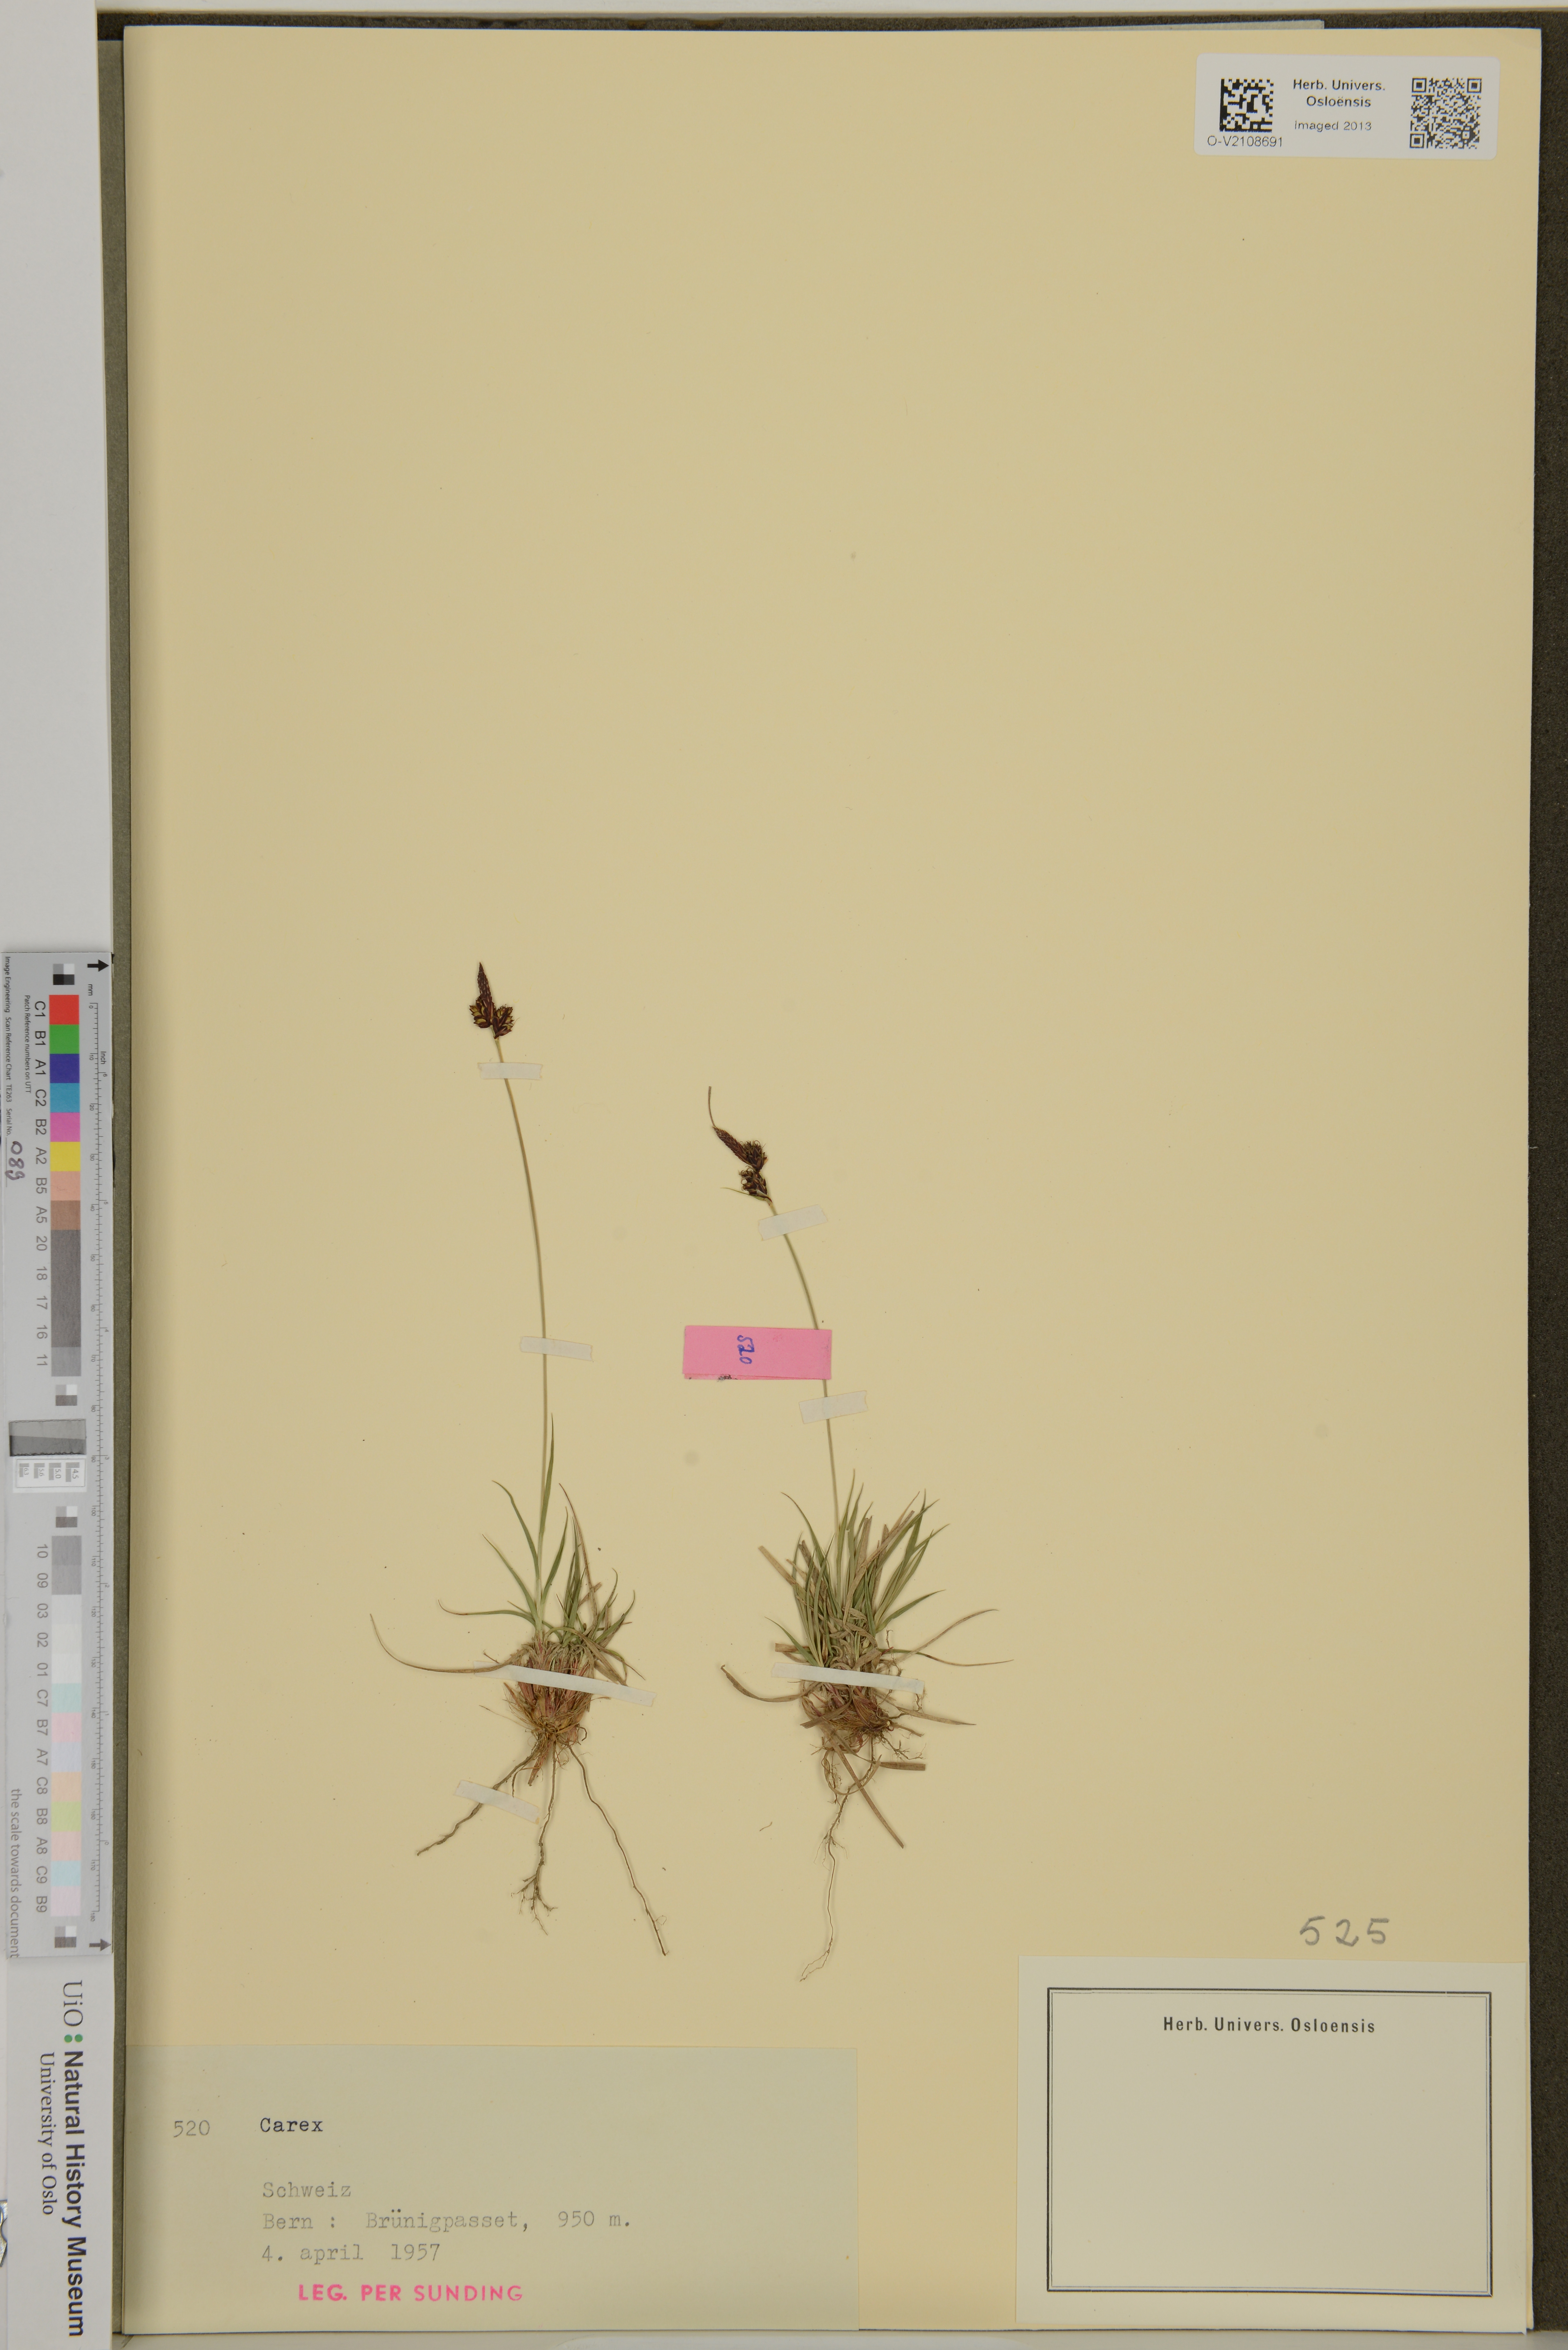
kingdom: Plantae
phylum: Tracheophyta
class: Liliopsida
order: Poales
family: Cyperaceae
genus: Carex
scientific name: Carex
